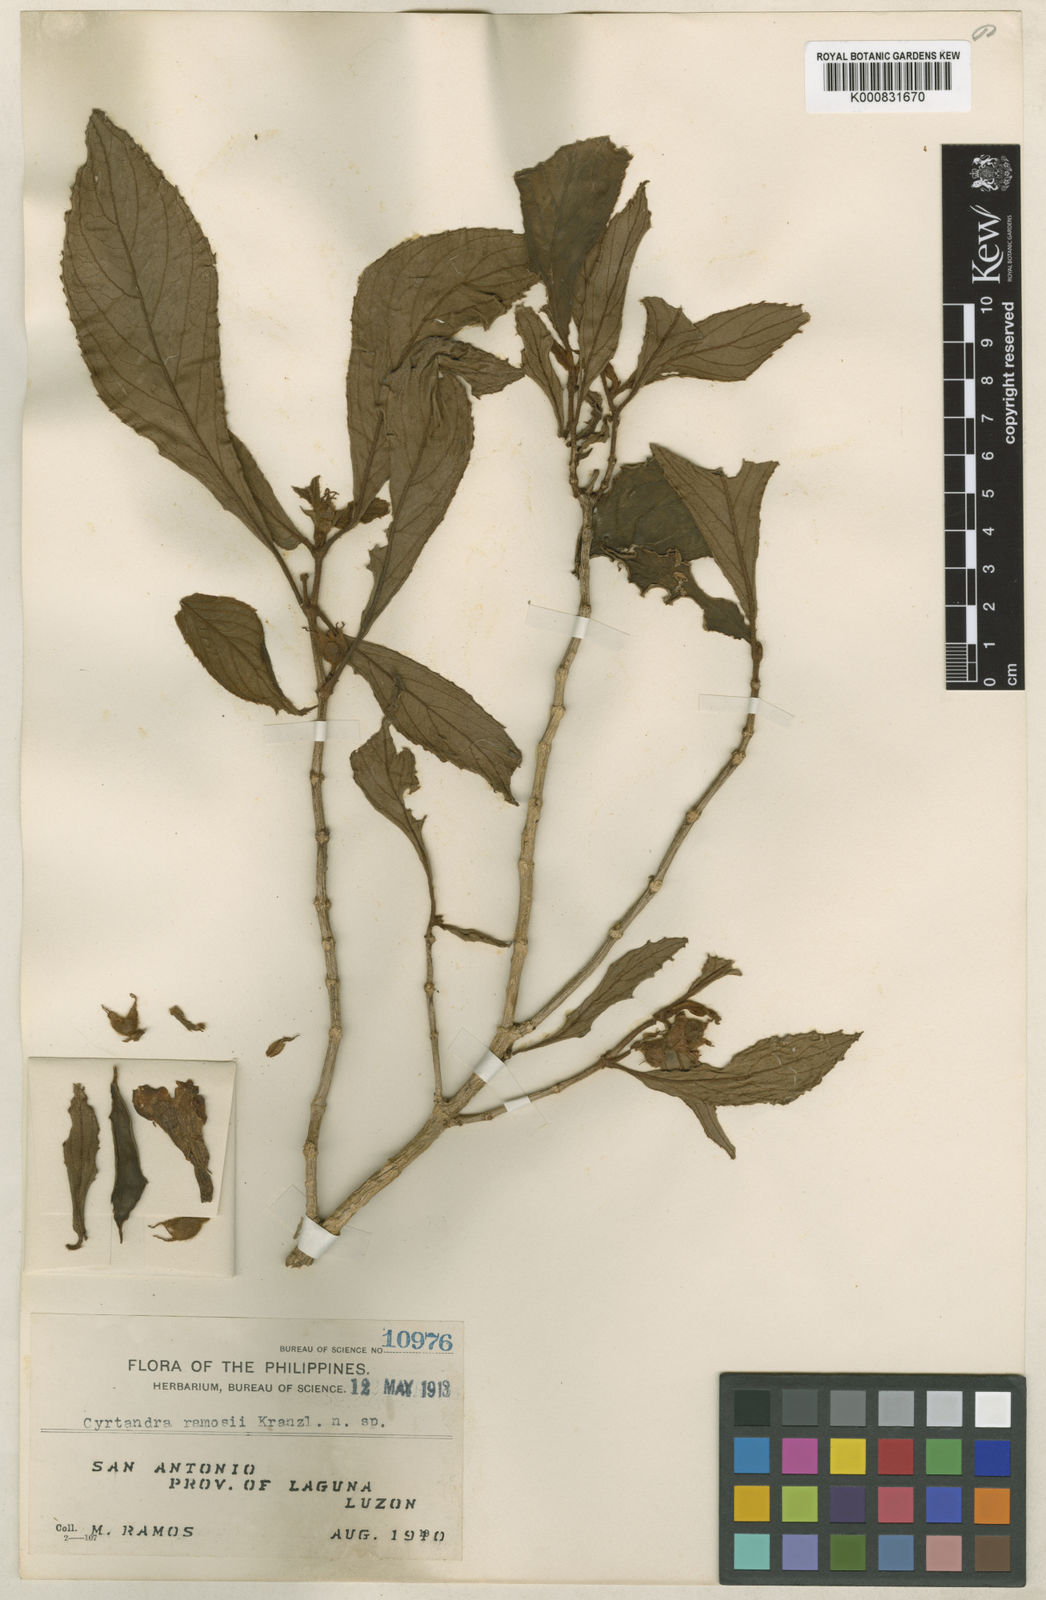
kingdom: Plantae
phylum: Tracheophyta
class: Magnoliopsida
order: Lamiales
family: Gesneriaceae
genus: Cyrtandra
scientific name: Cyrtandra lobbii
